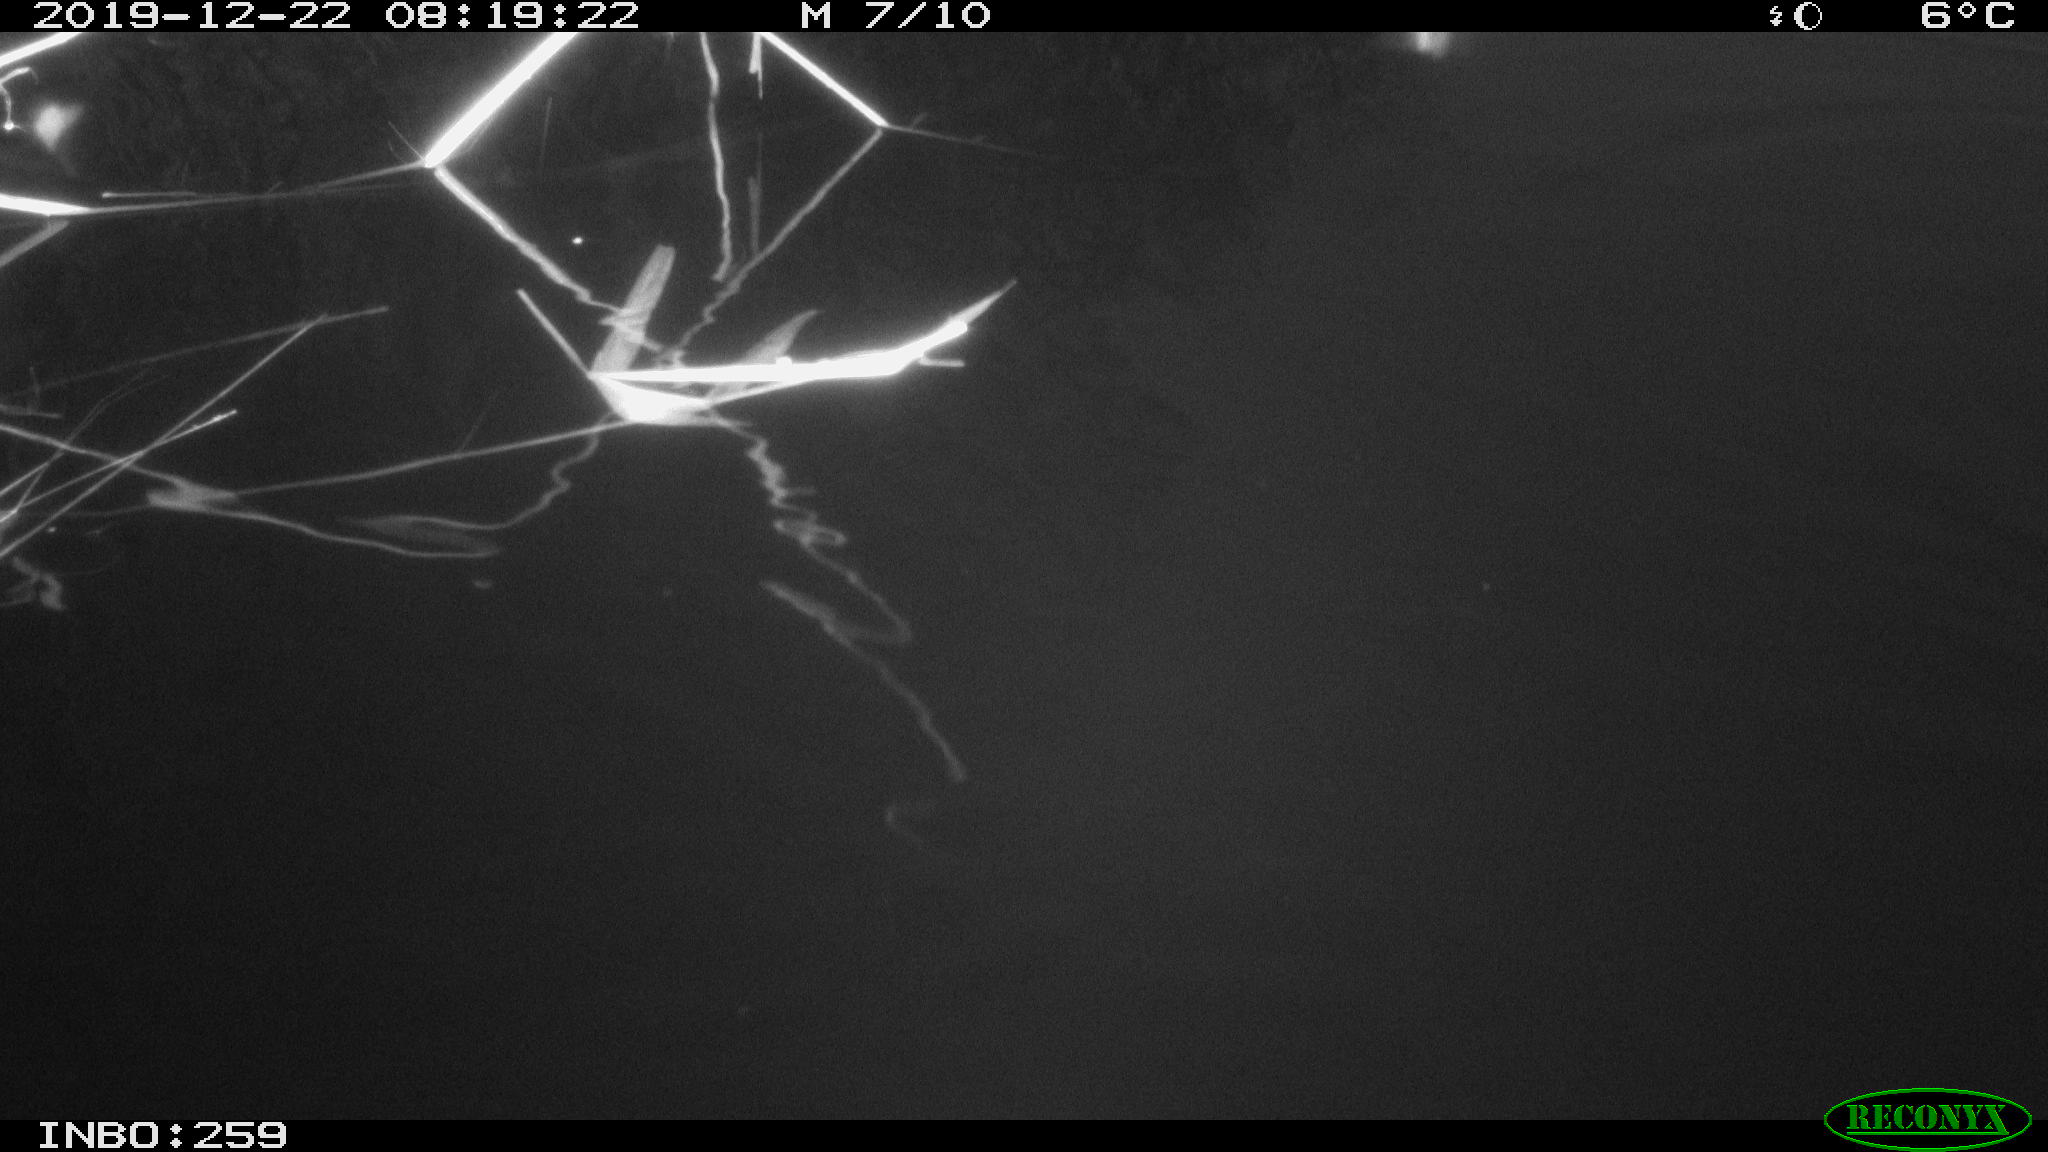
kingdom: Animalia
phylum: Chordata
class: Aves
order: Gruiformes
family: Rallidae
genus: Gallinula
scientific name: Gallinula chloropus
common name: Common moorhen
